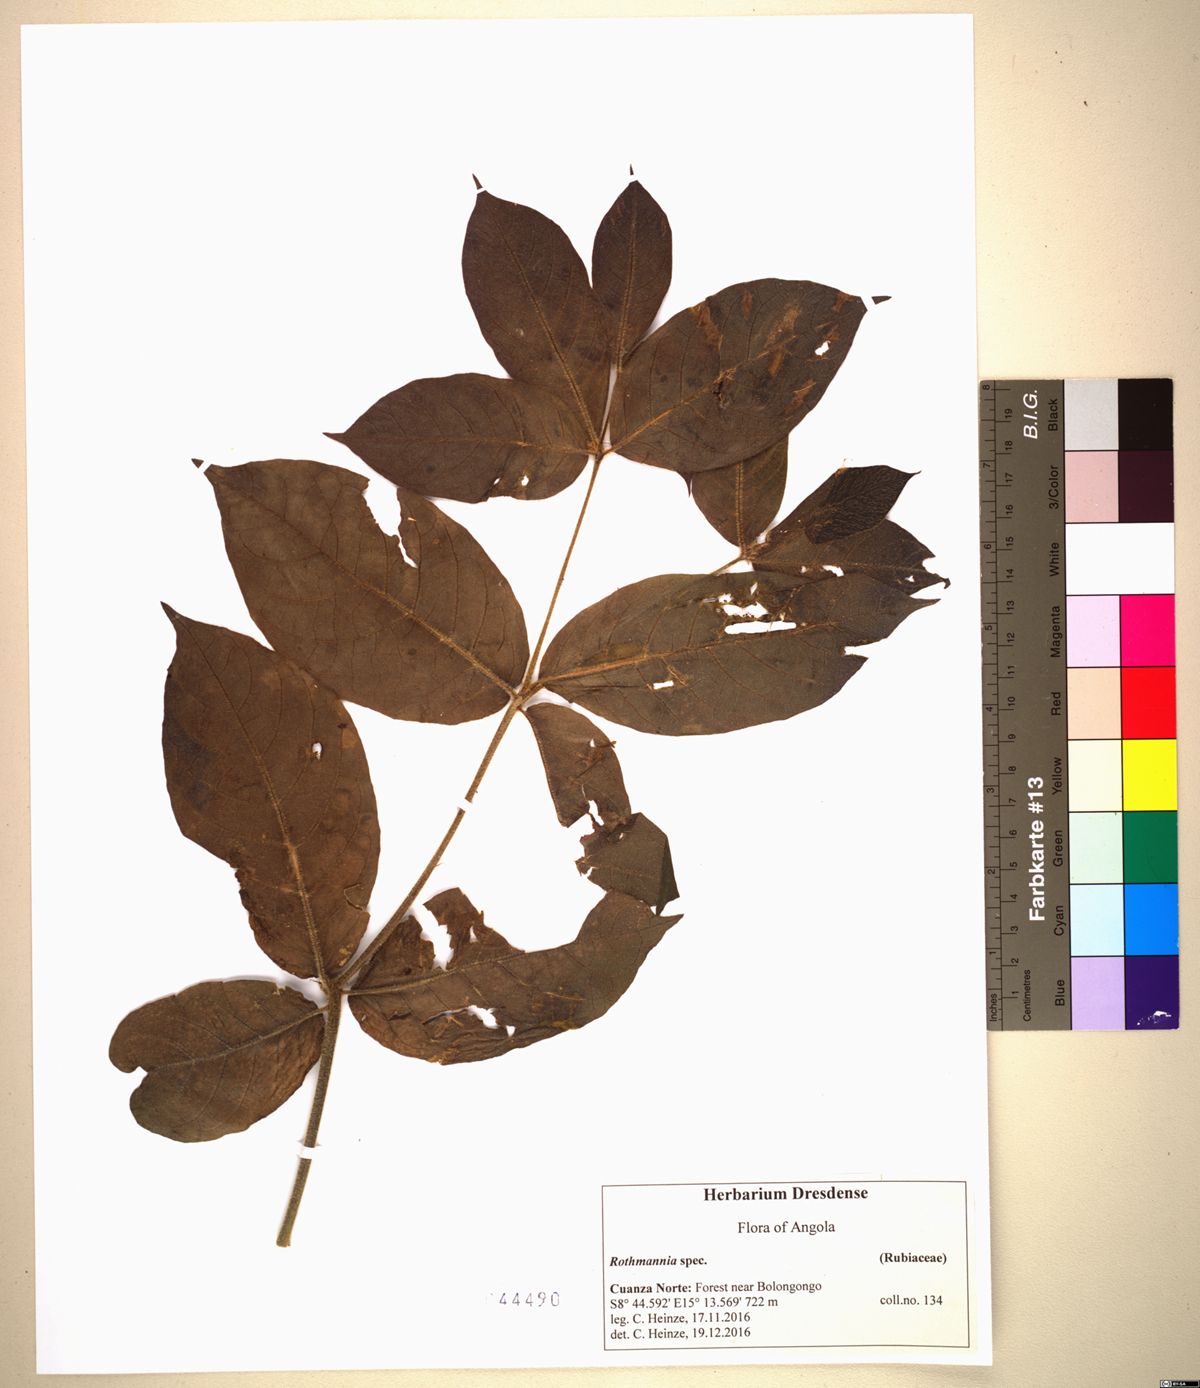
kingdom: Plantae
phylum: Tracheophyta
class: Magnoliopsida
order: Gentianales
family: Rubiaceae
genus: Rothmannia
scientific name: Rothmannia octomera
